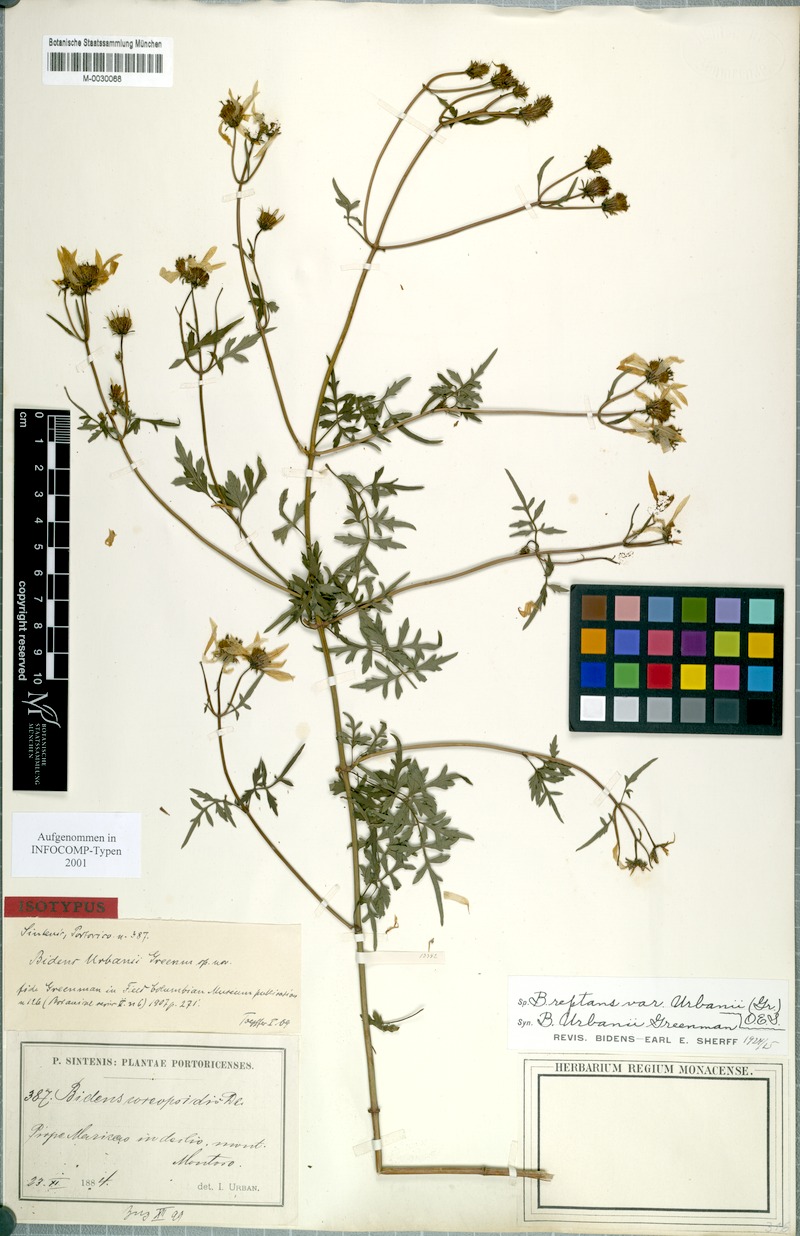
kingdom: Plantae
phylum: Tracheophyta
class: Magnoliopsida
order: Asterales
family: Asteraceae
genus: Bidens
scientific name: Bidens reptans
